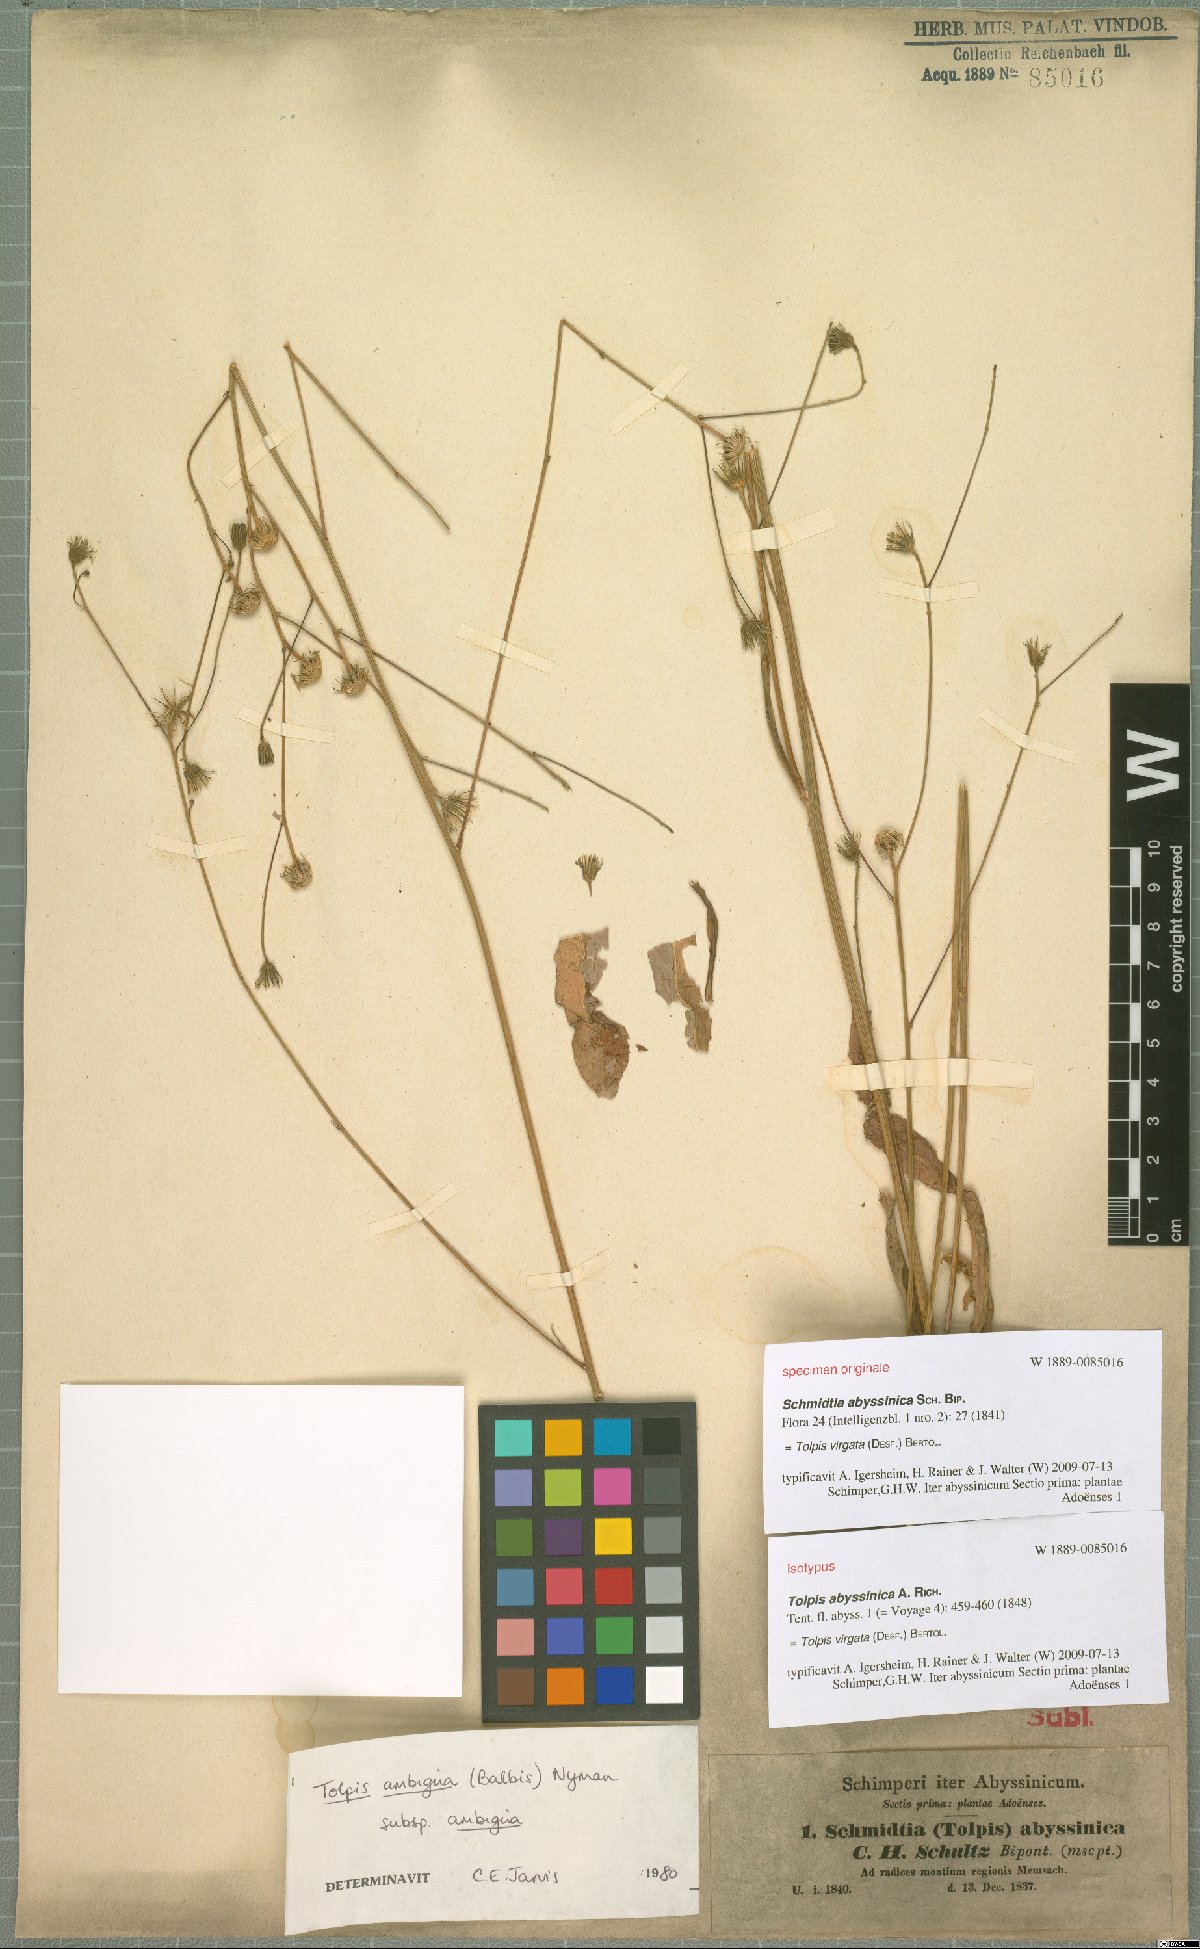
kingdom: Plantae
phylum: Tracheophyta
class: Magnoliopsida
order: Asterales
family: Asteraceae
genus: Tolpis
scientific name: Tolpis virgata
